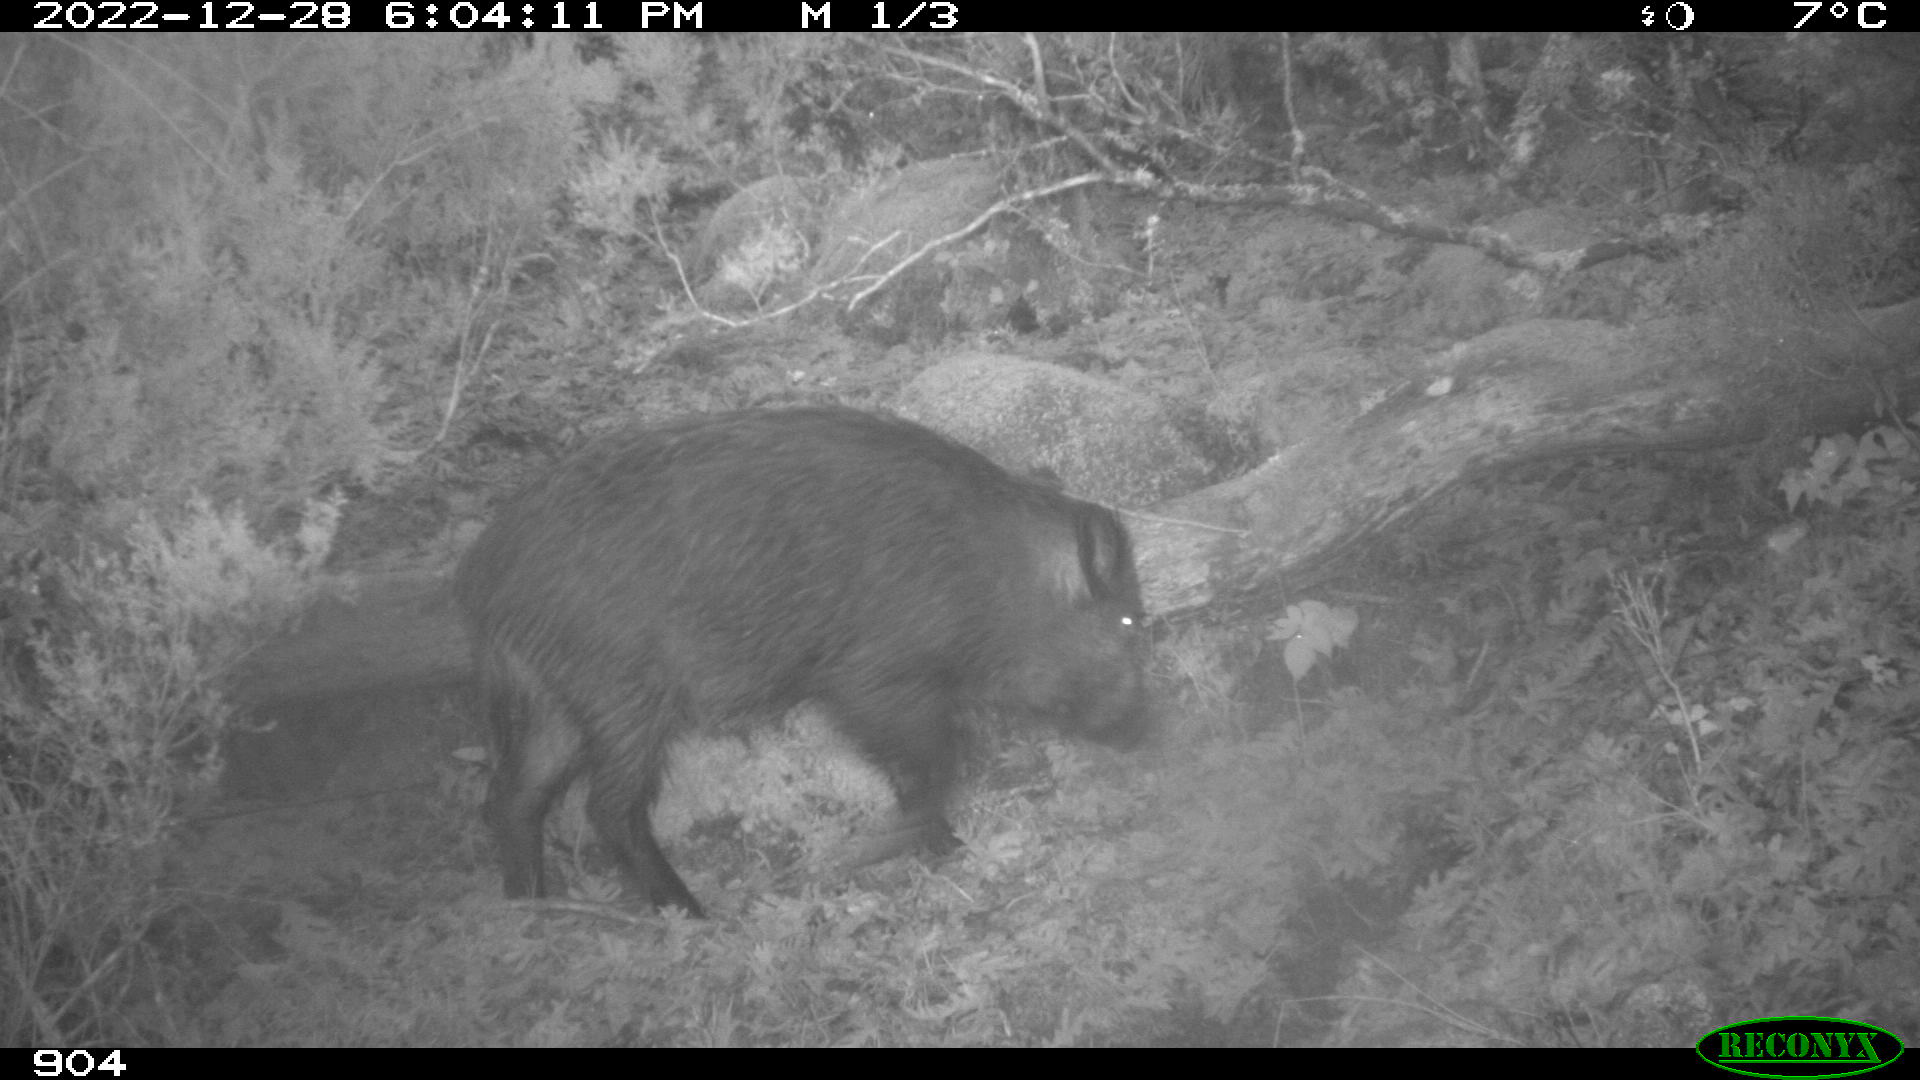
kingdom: Animalia
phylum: Chordata
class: Mammalia
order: Artiodactyla
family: Suidae
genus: Sus
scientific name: Sus scrofa
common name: Wild boar
